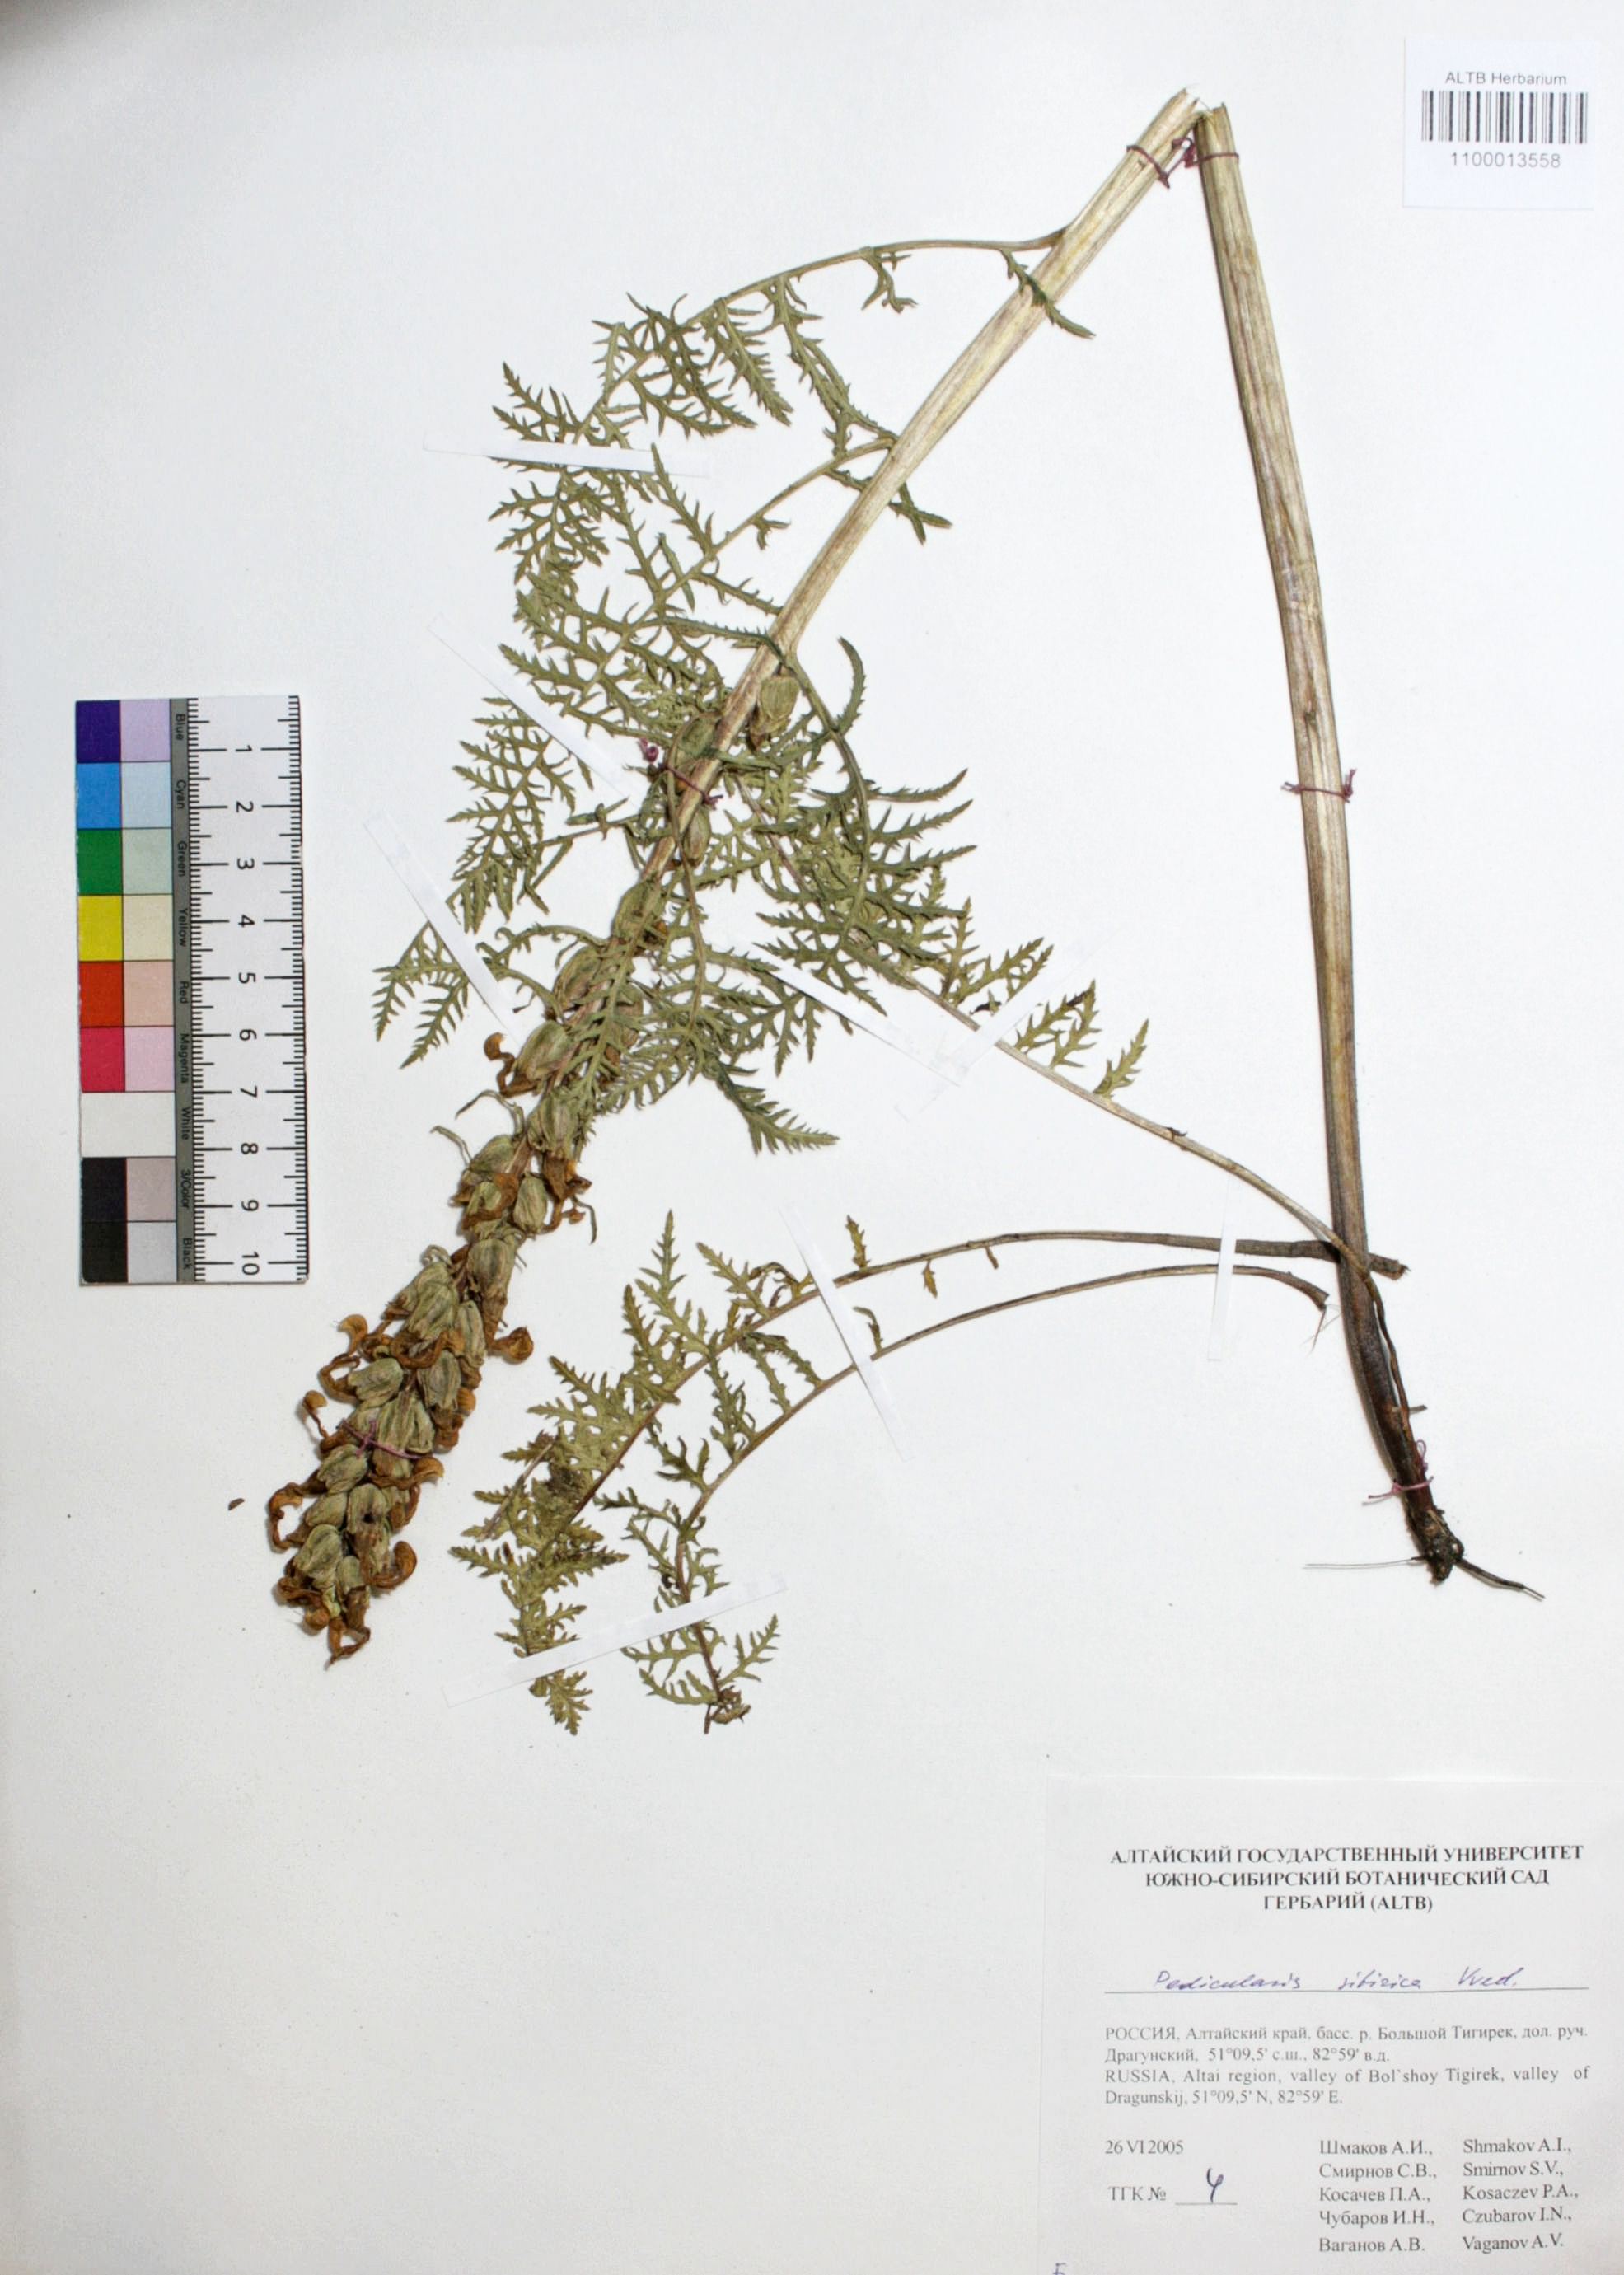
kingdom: Plantae
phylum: Tracheophyta
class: Magnoliopsida
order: Lamiales
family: Orobanchaceae
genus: Pedicularis
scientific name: Pedicularis sibirica
